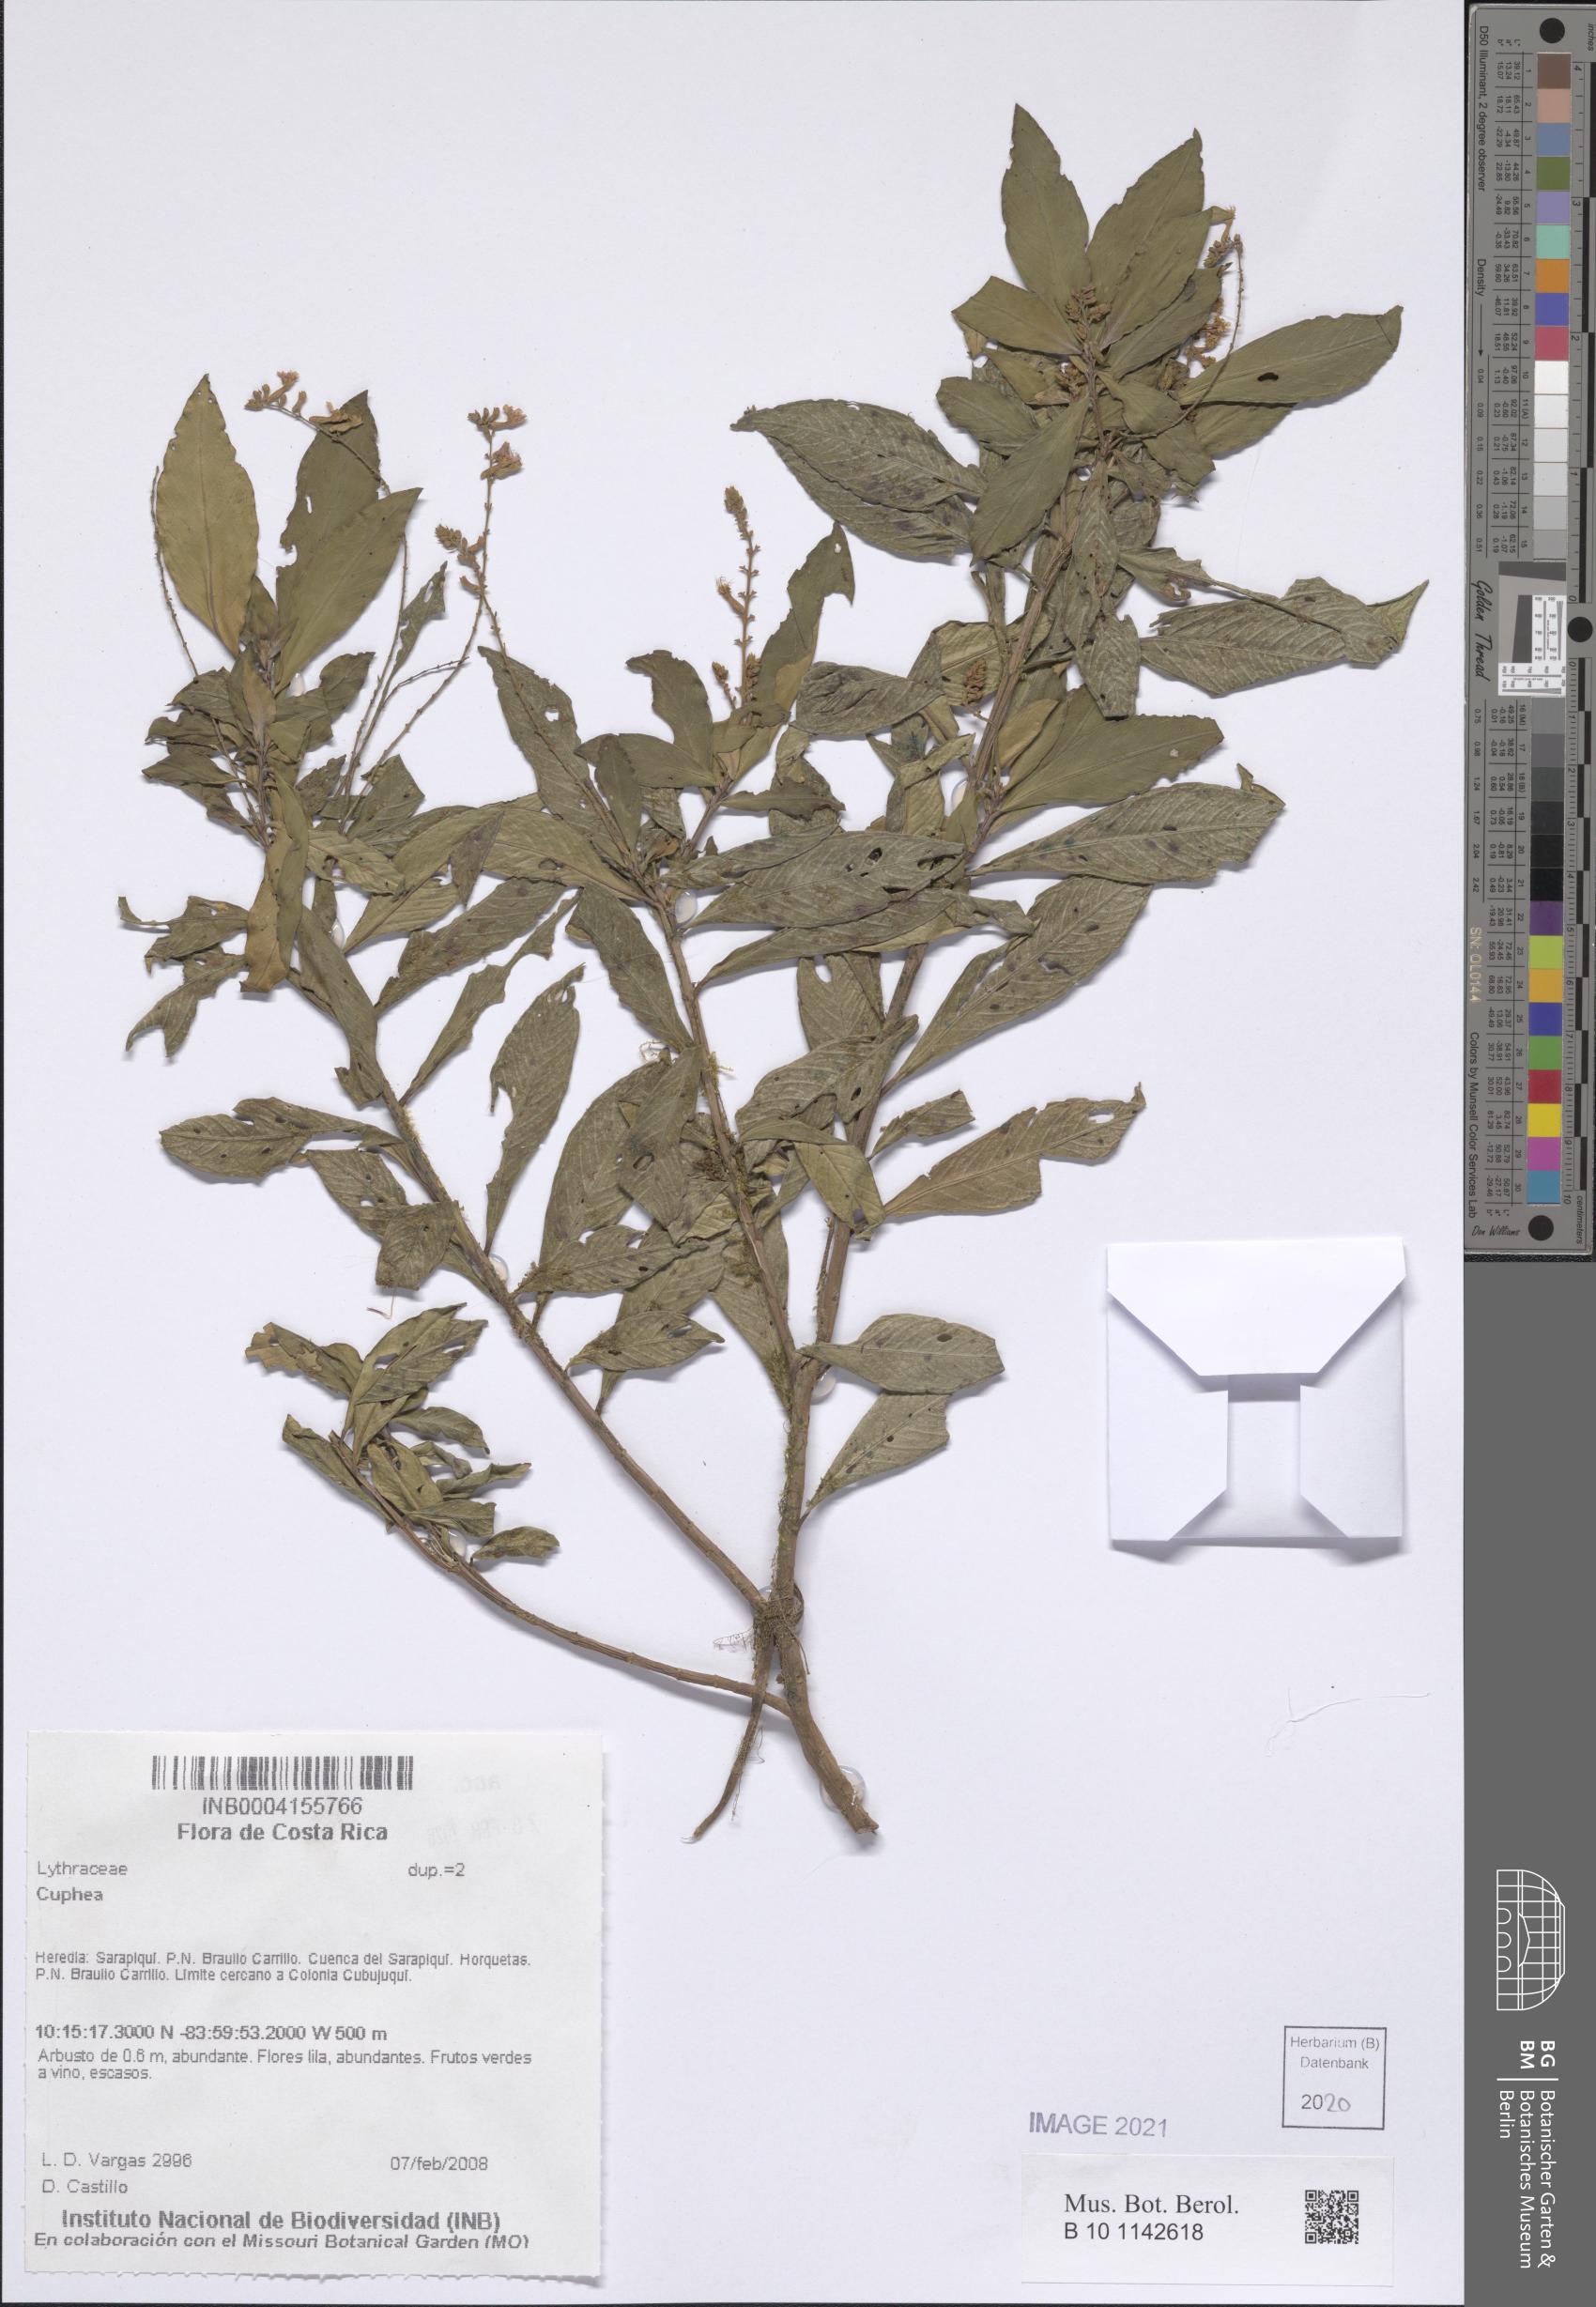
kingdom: Plantae
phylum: Tracheophyta
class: Magnoliopsida
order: Myrtales
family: Lythraceae
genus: Cuphea
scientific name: Cuphea
